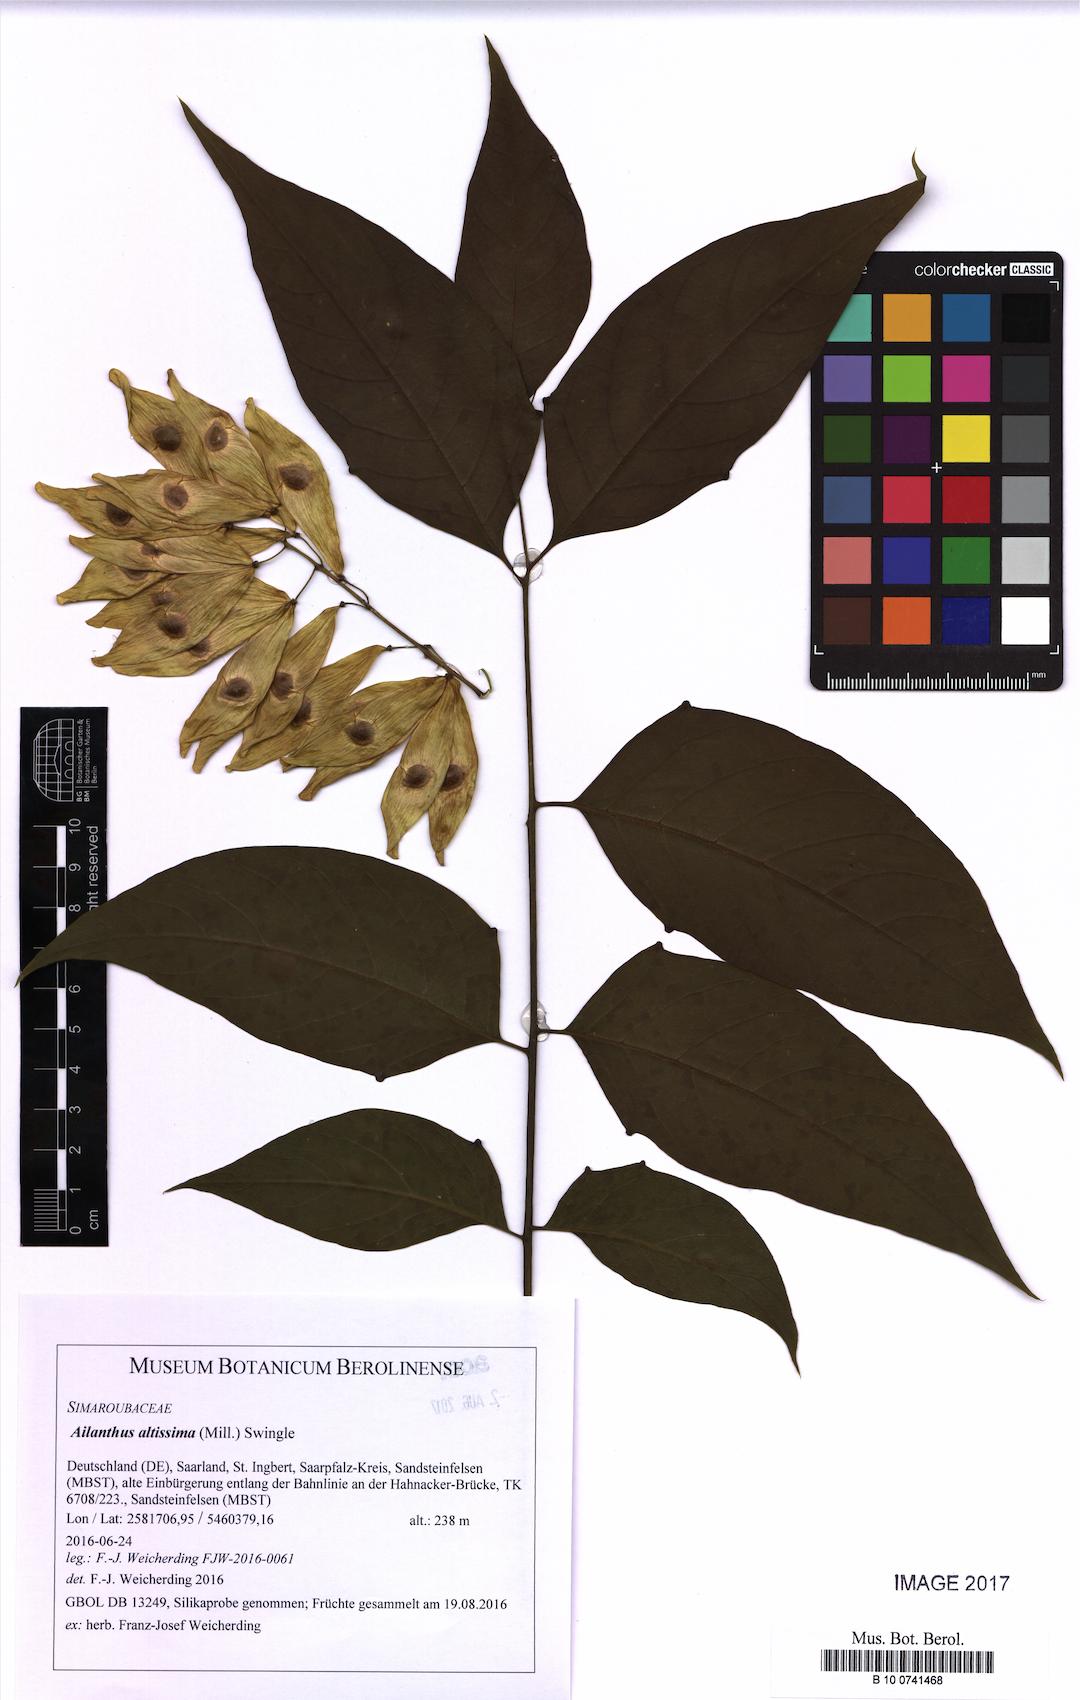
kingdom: Plantae
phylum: Tracheophyta
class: Magnoliopsida
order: Sapindales
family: Simaroubaceae
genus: Ailanthus
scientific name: Ailanthus altissima
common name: Tree-of-heaven
